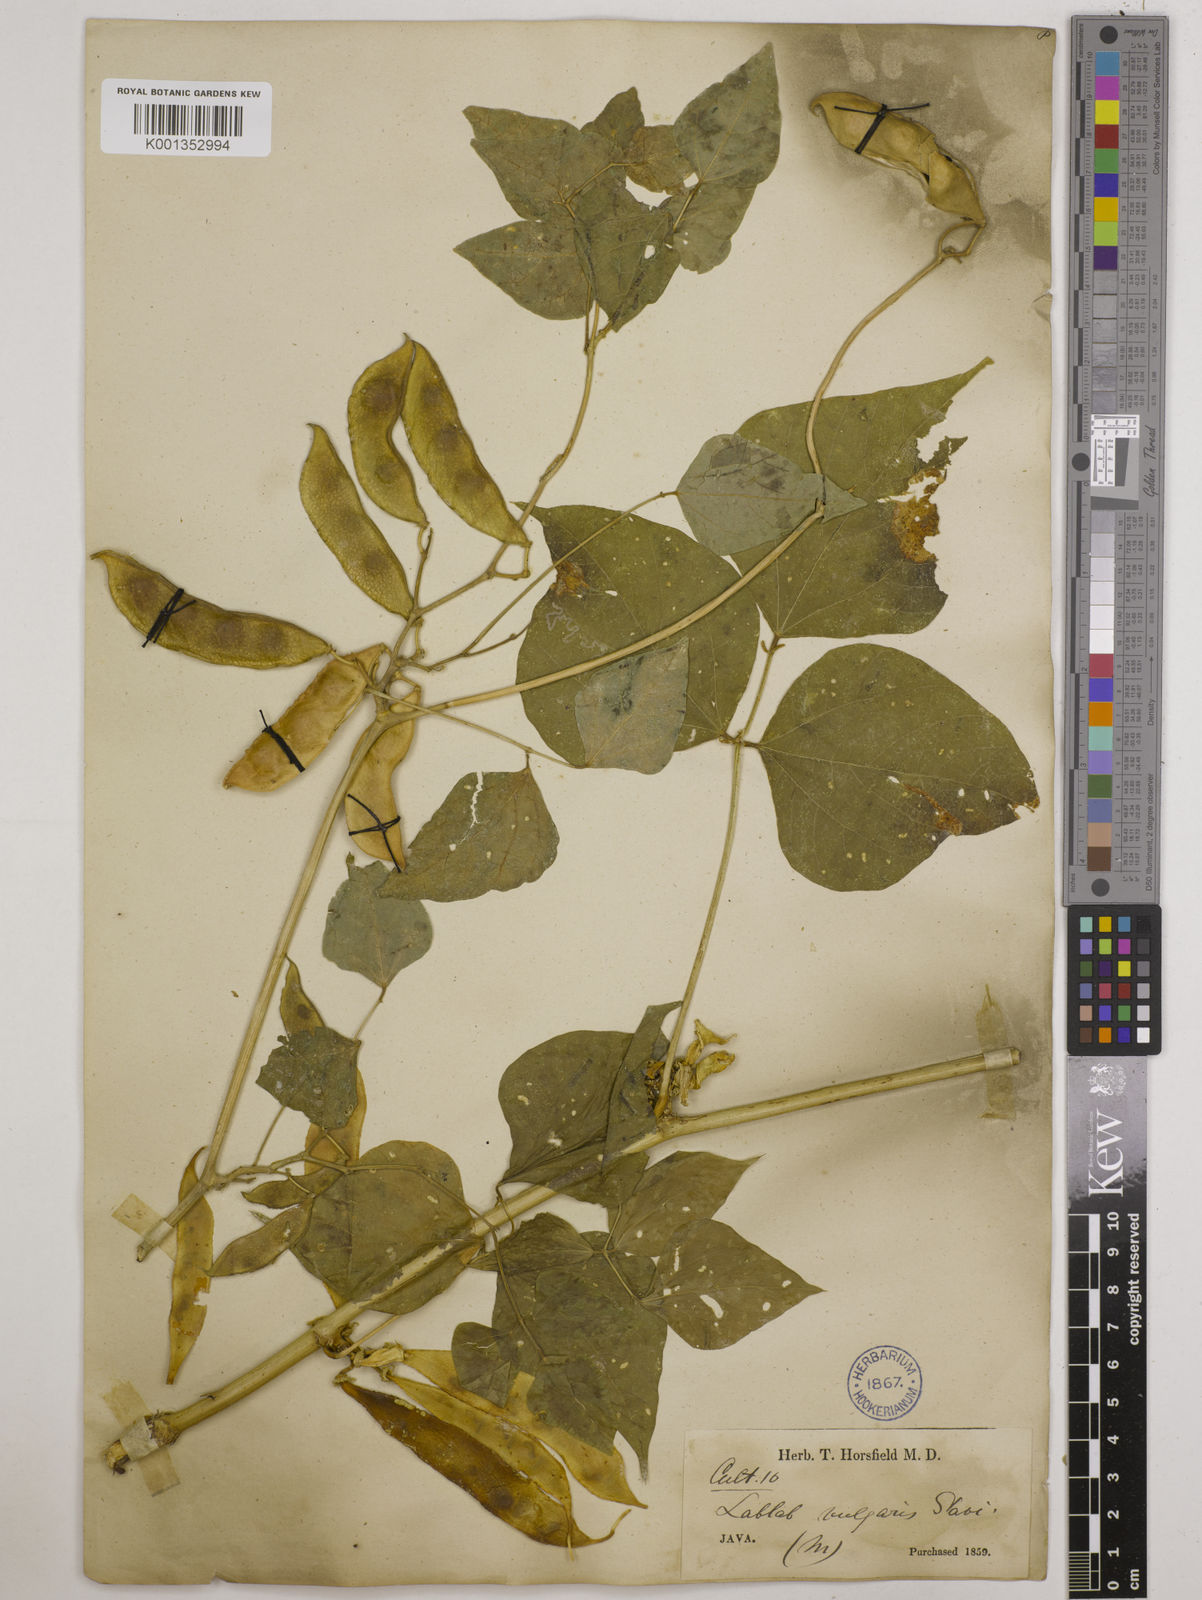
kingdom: Plantae
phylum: Tracheophyta
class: Magnoliopsida
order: Fabales
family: Fabaceae
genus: Lablab
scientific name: Lablab purpureus
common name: Lablab-bean
